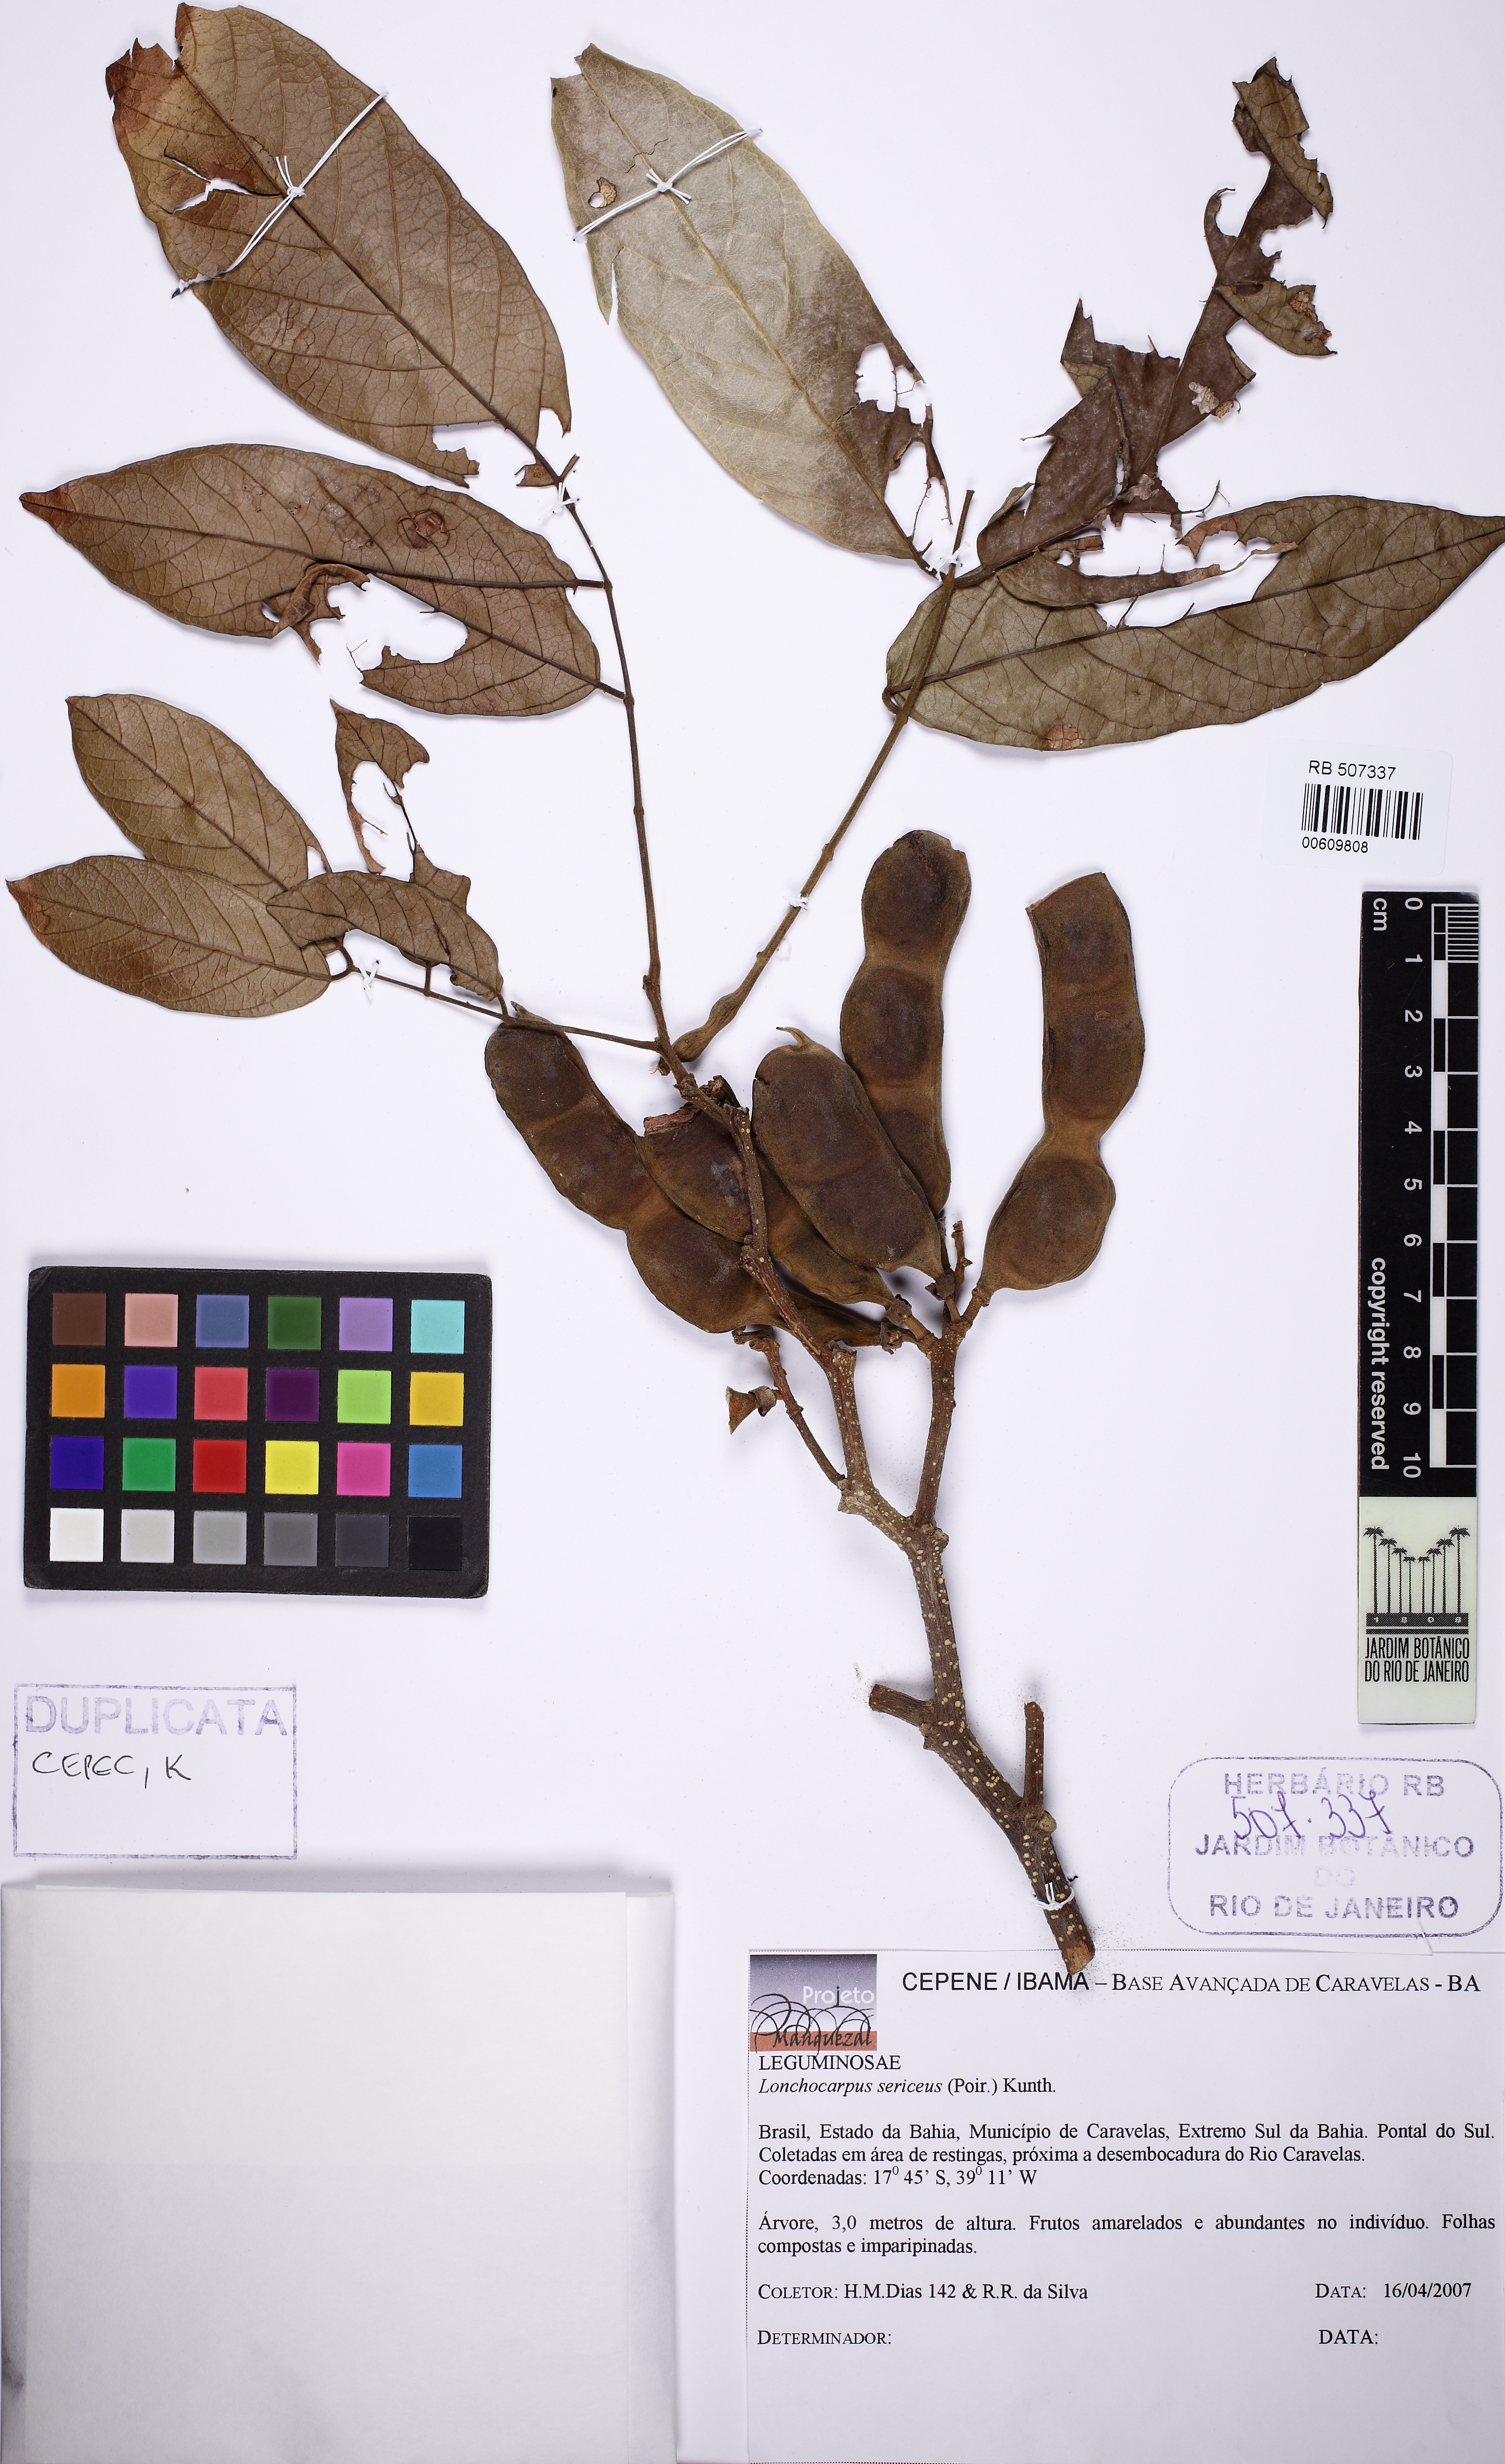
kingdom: Plantae
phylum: Tracheophyta
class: Magnoliopsida
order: Fabales
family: Fabaceae
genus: Lonchocarpus
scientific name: Lonchocarpus sericeus
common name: Savonette
